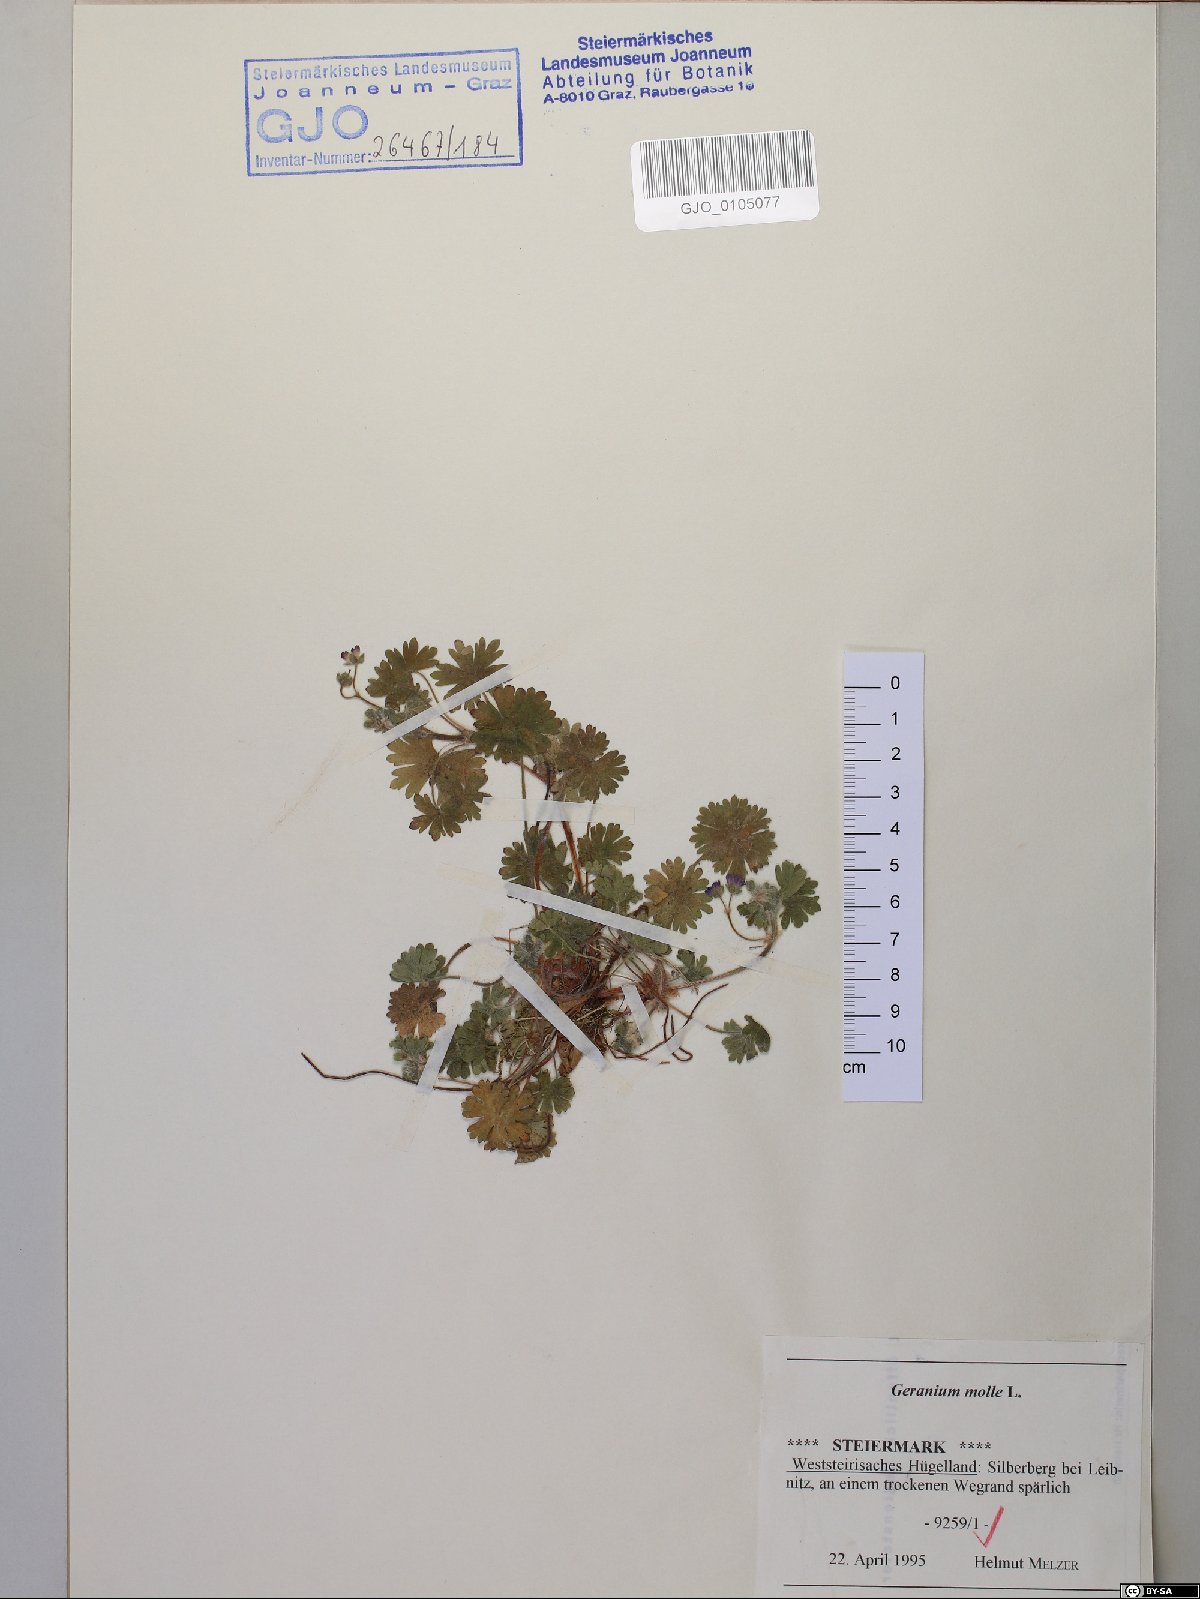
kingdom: Plantae
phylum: Tracheophyta
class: Magnoliopsida
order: Geraniales
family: Geraniaceae
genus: Geranium
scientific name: Geranium molle
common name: Dove's-foot crane's-bill
